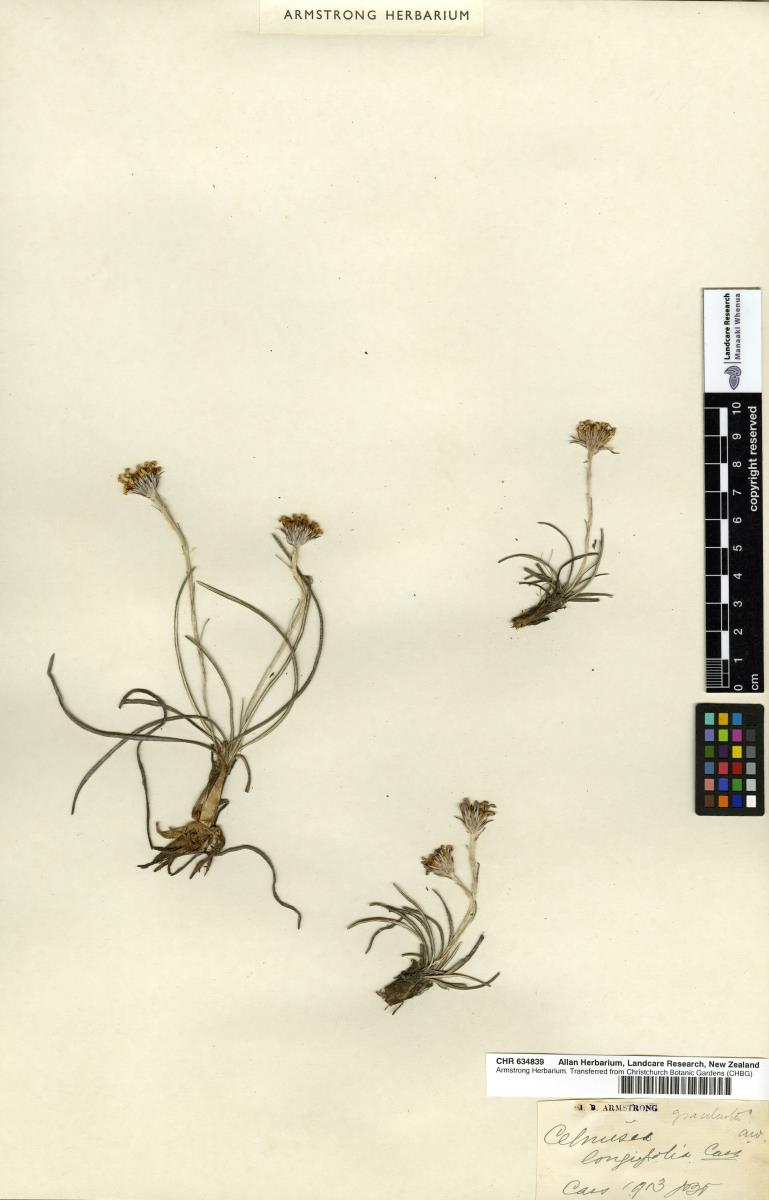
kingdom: Plantae
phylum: Tracheophyta
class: Magnoliopsida
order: Asterales
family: Asteraceae
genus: Celmisia
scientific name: Celmisia gracilenta
